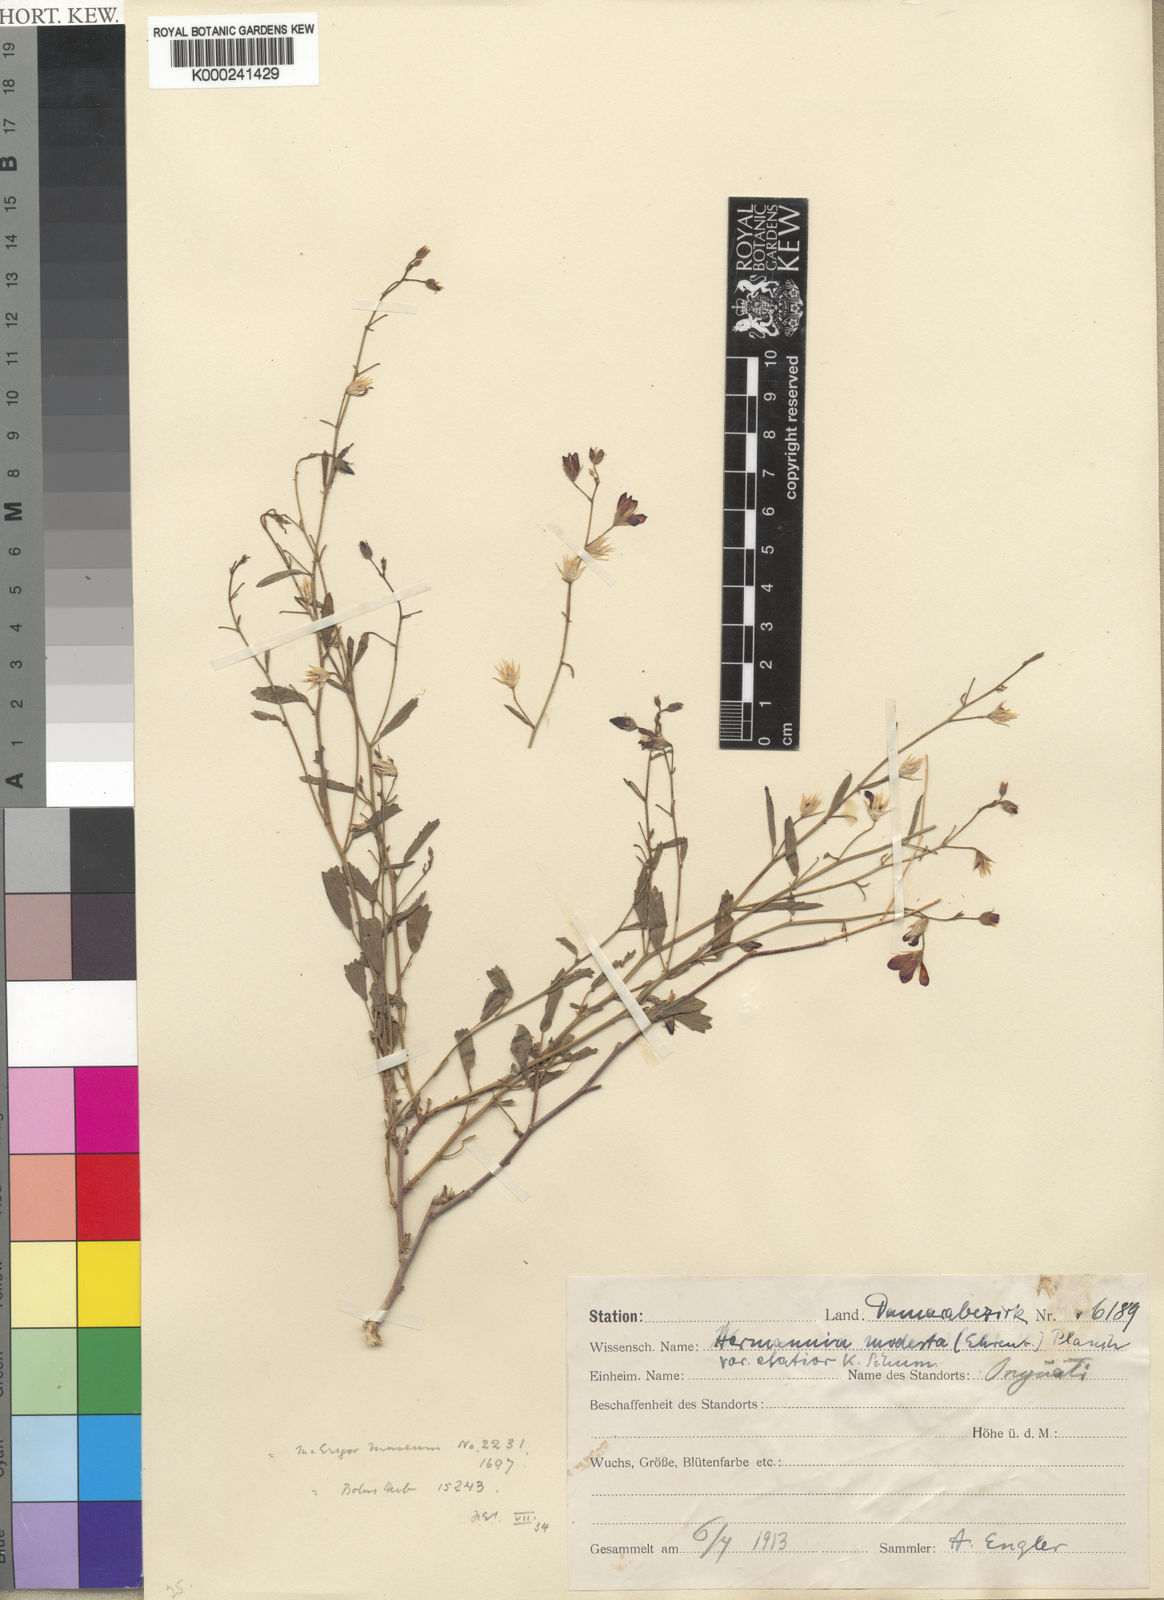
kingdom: Plantae
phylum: Tracheophyta
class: Magnoliopsida
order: Malvales
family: Malvaceae
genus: Hermannia
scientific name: Hermannia modesta
